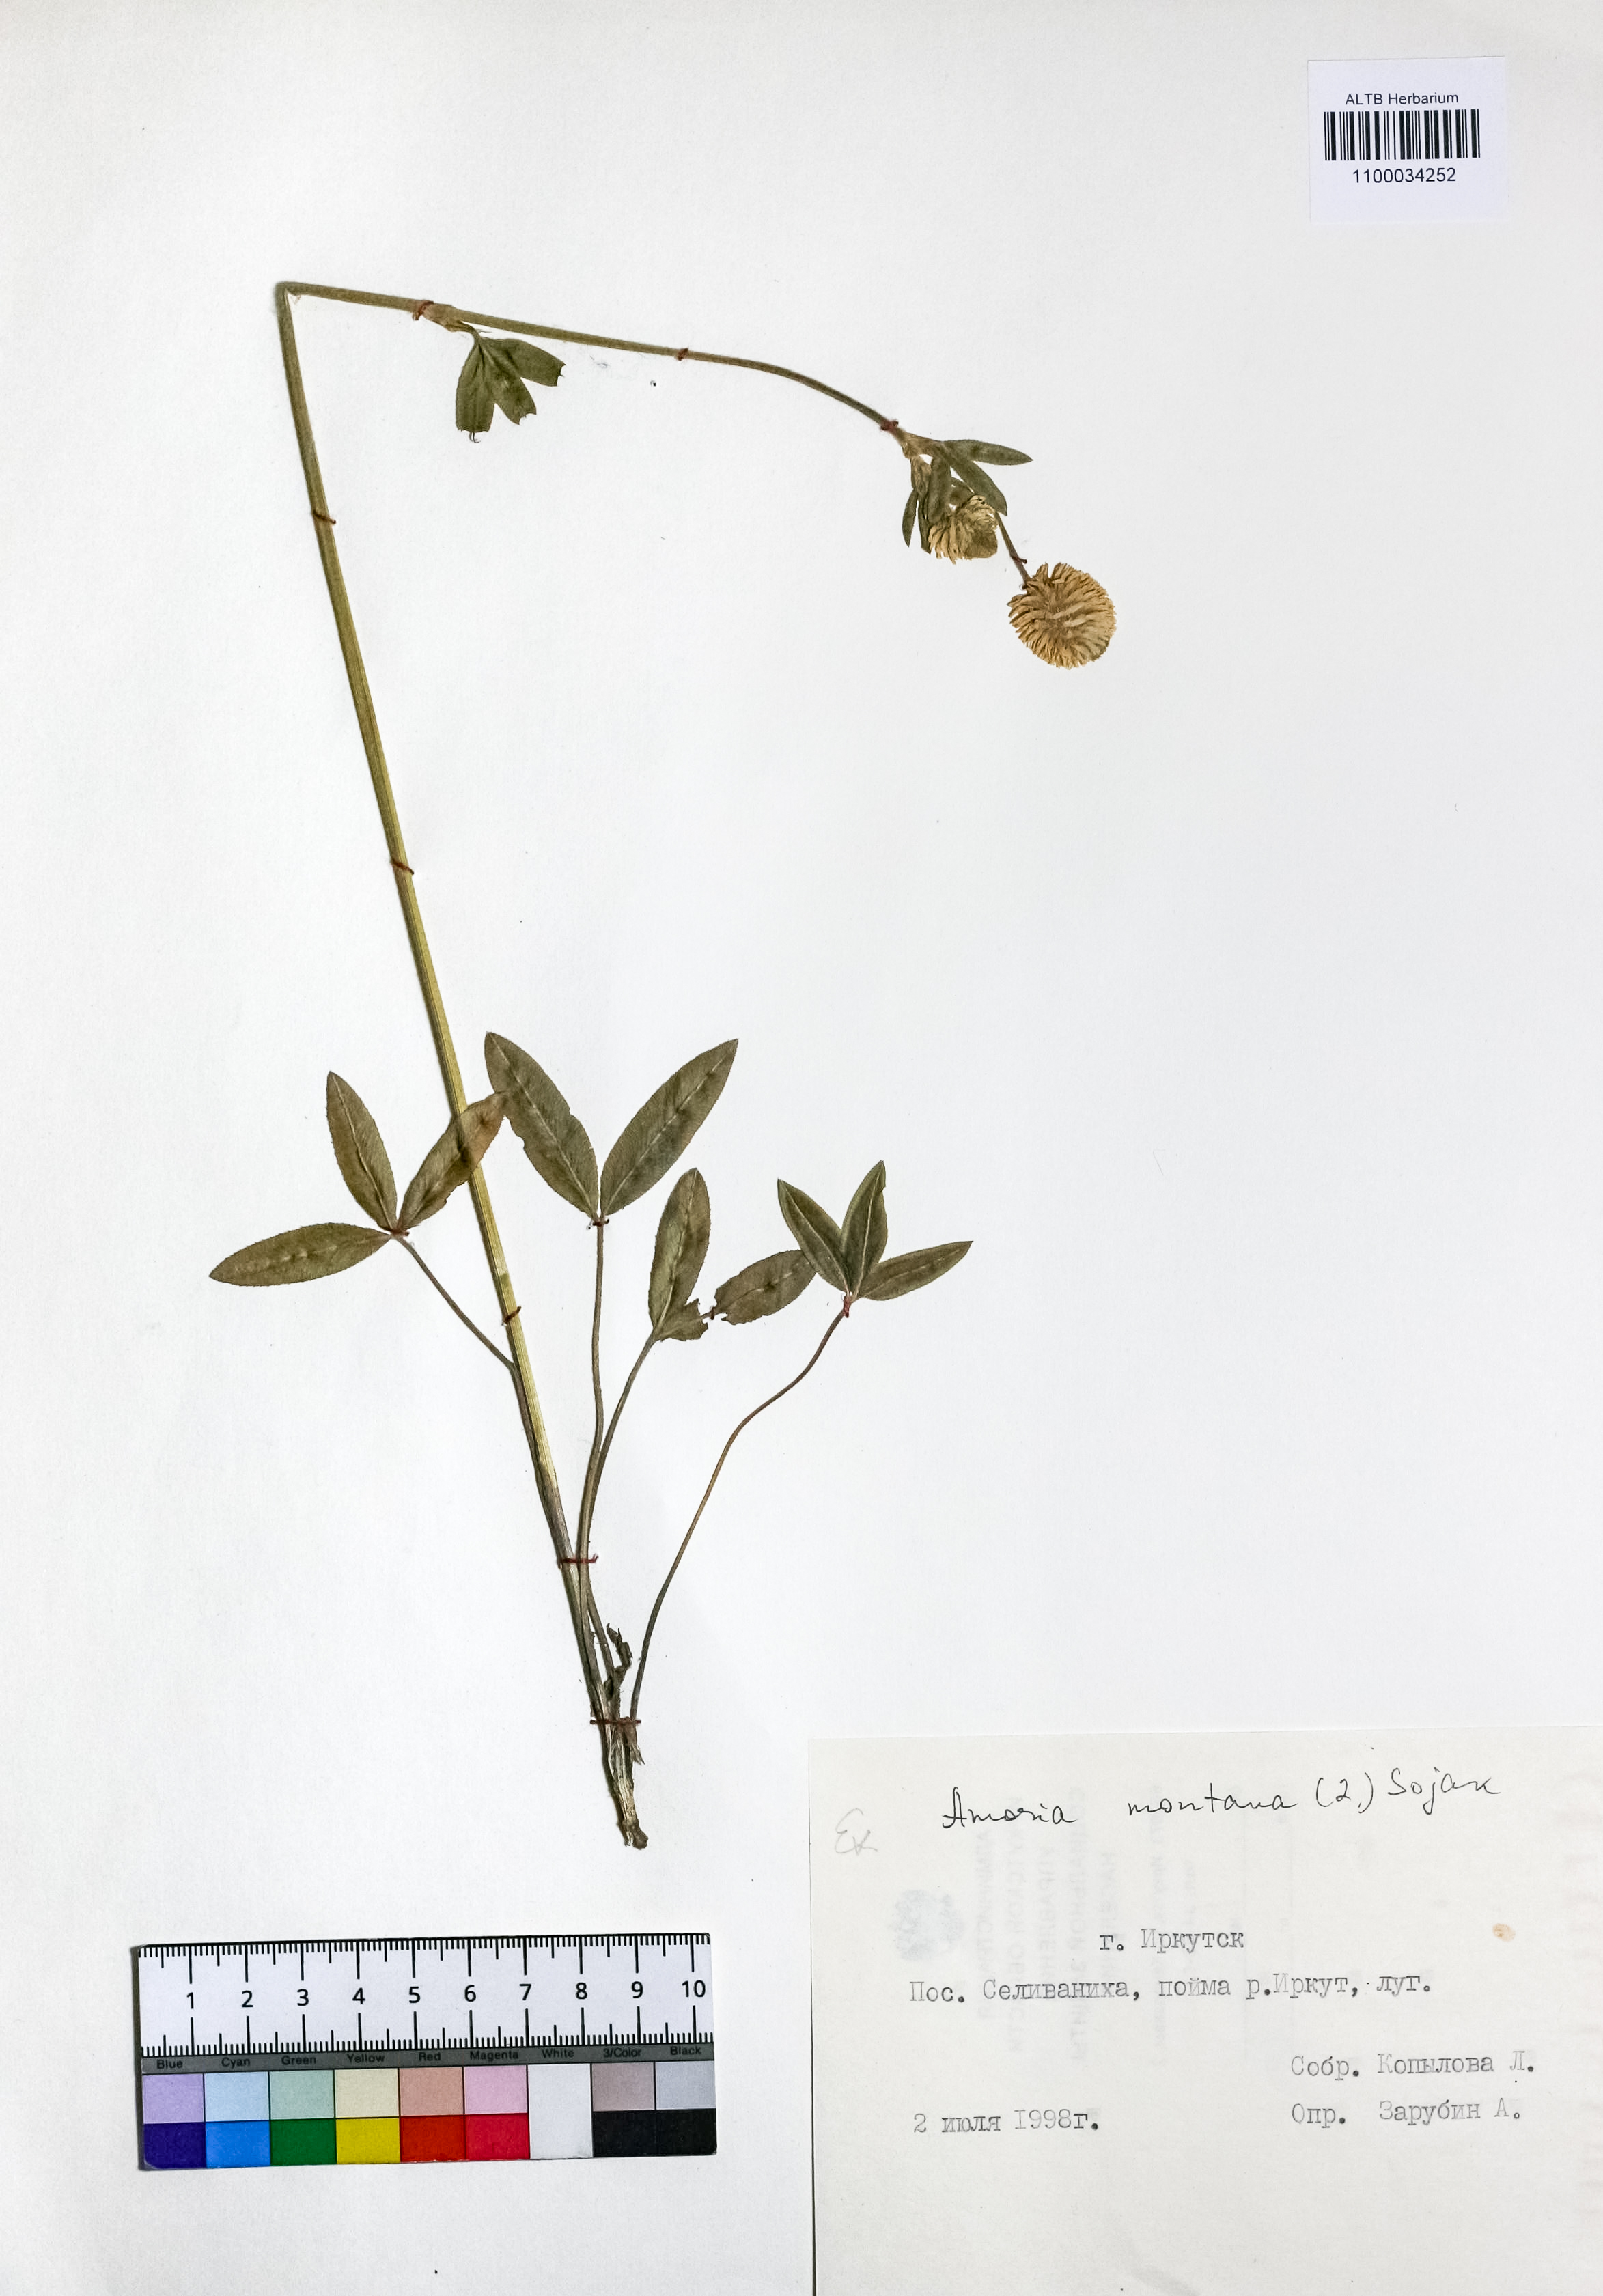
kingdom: Plantae
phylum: Tracheophyta
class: Magnoliopsida
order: Fabales
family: Fabaceae
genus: Trifolium
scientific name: Trifolium montanum
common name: Mountain clover
